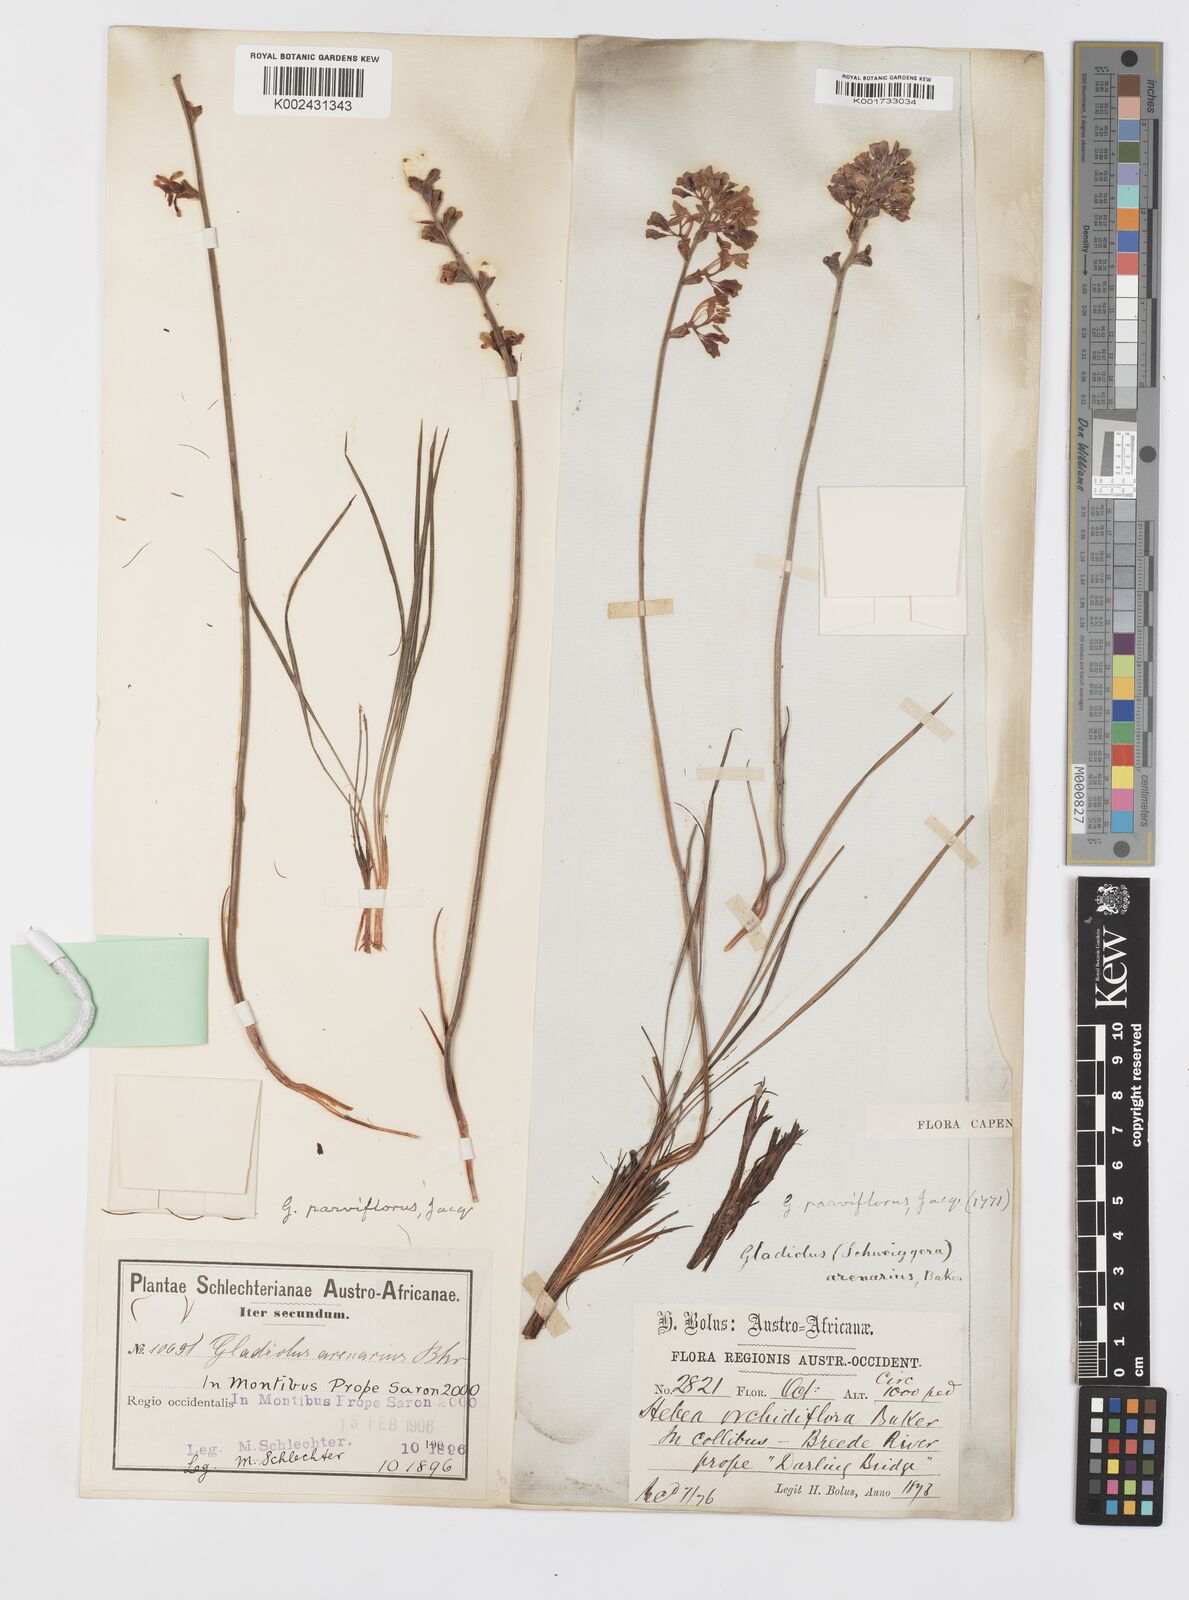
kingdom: Plantae
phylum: Tracheophyta
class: Liliopsida
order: Asparagales
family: Iridaceae
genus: Tritoniopsis
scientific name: Tritoniopsis parviflora
